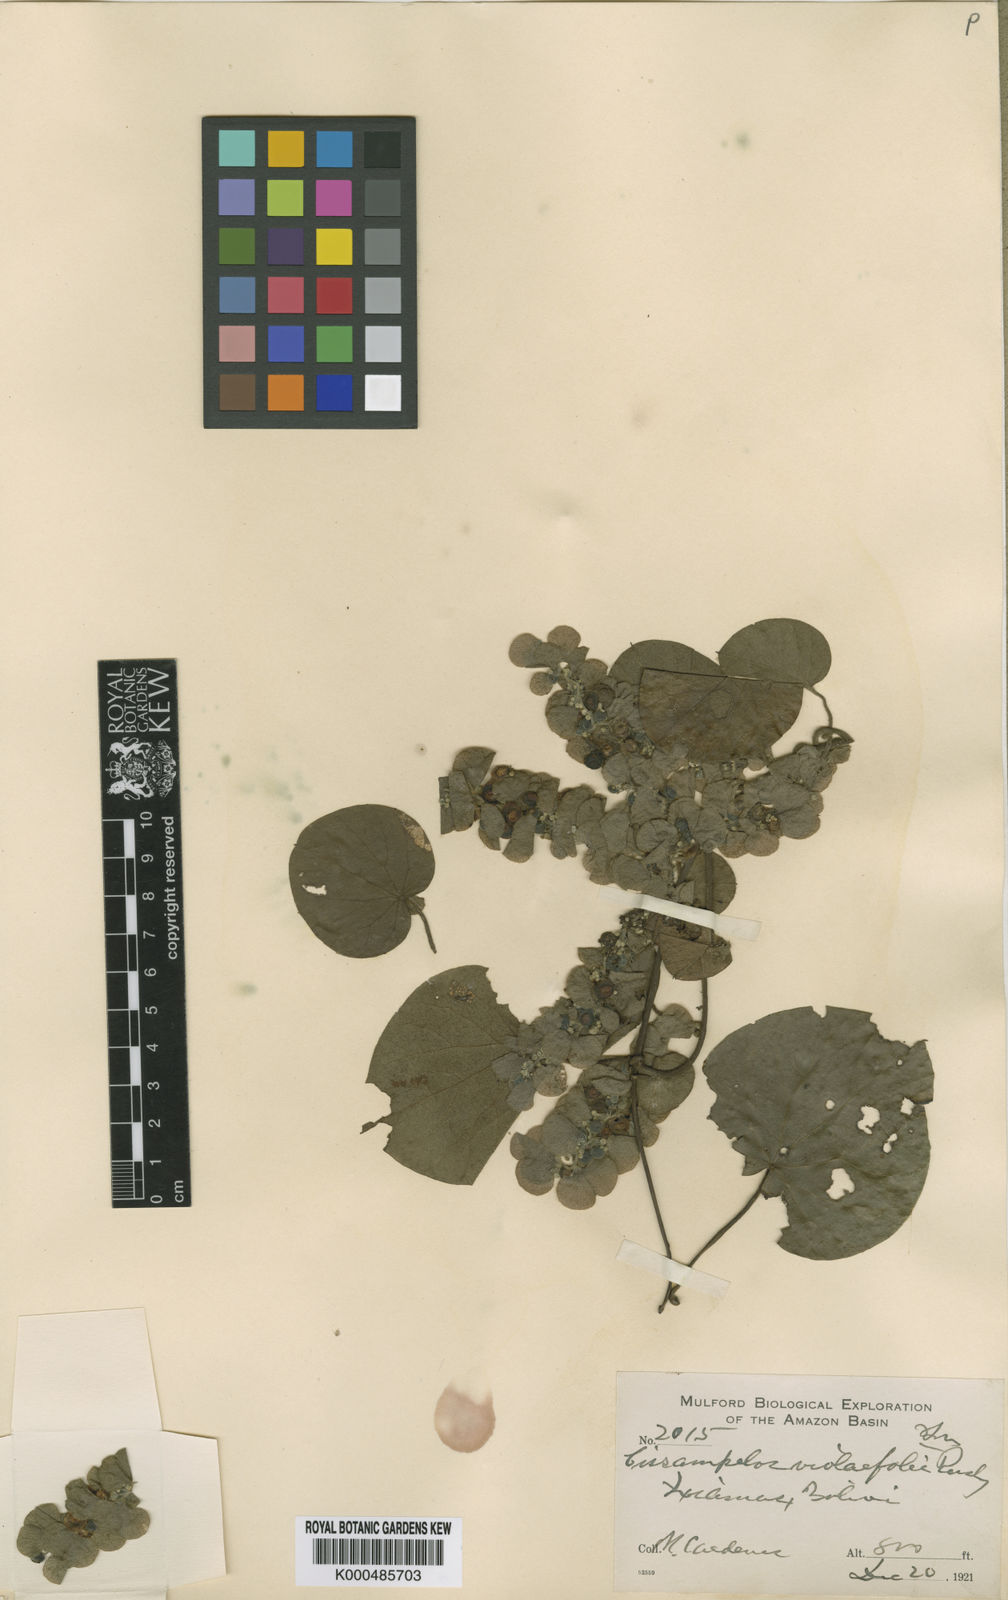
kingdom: Plantae
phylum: Tracheophyta
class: Magnoliopsida
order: Ranunculales
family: Menispermaceae
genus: Cissampelos
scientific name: Cissampelos pareira
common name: Velvetleaf
